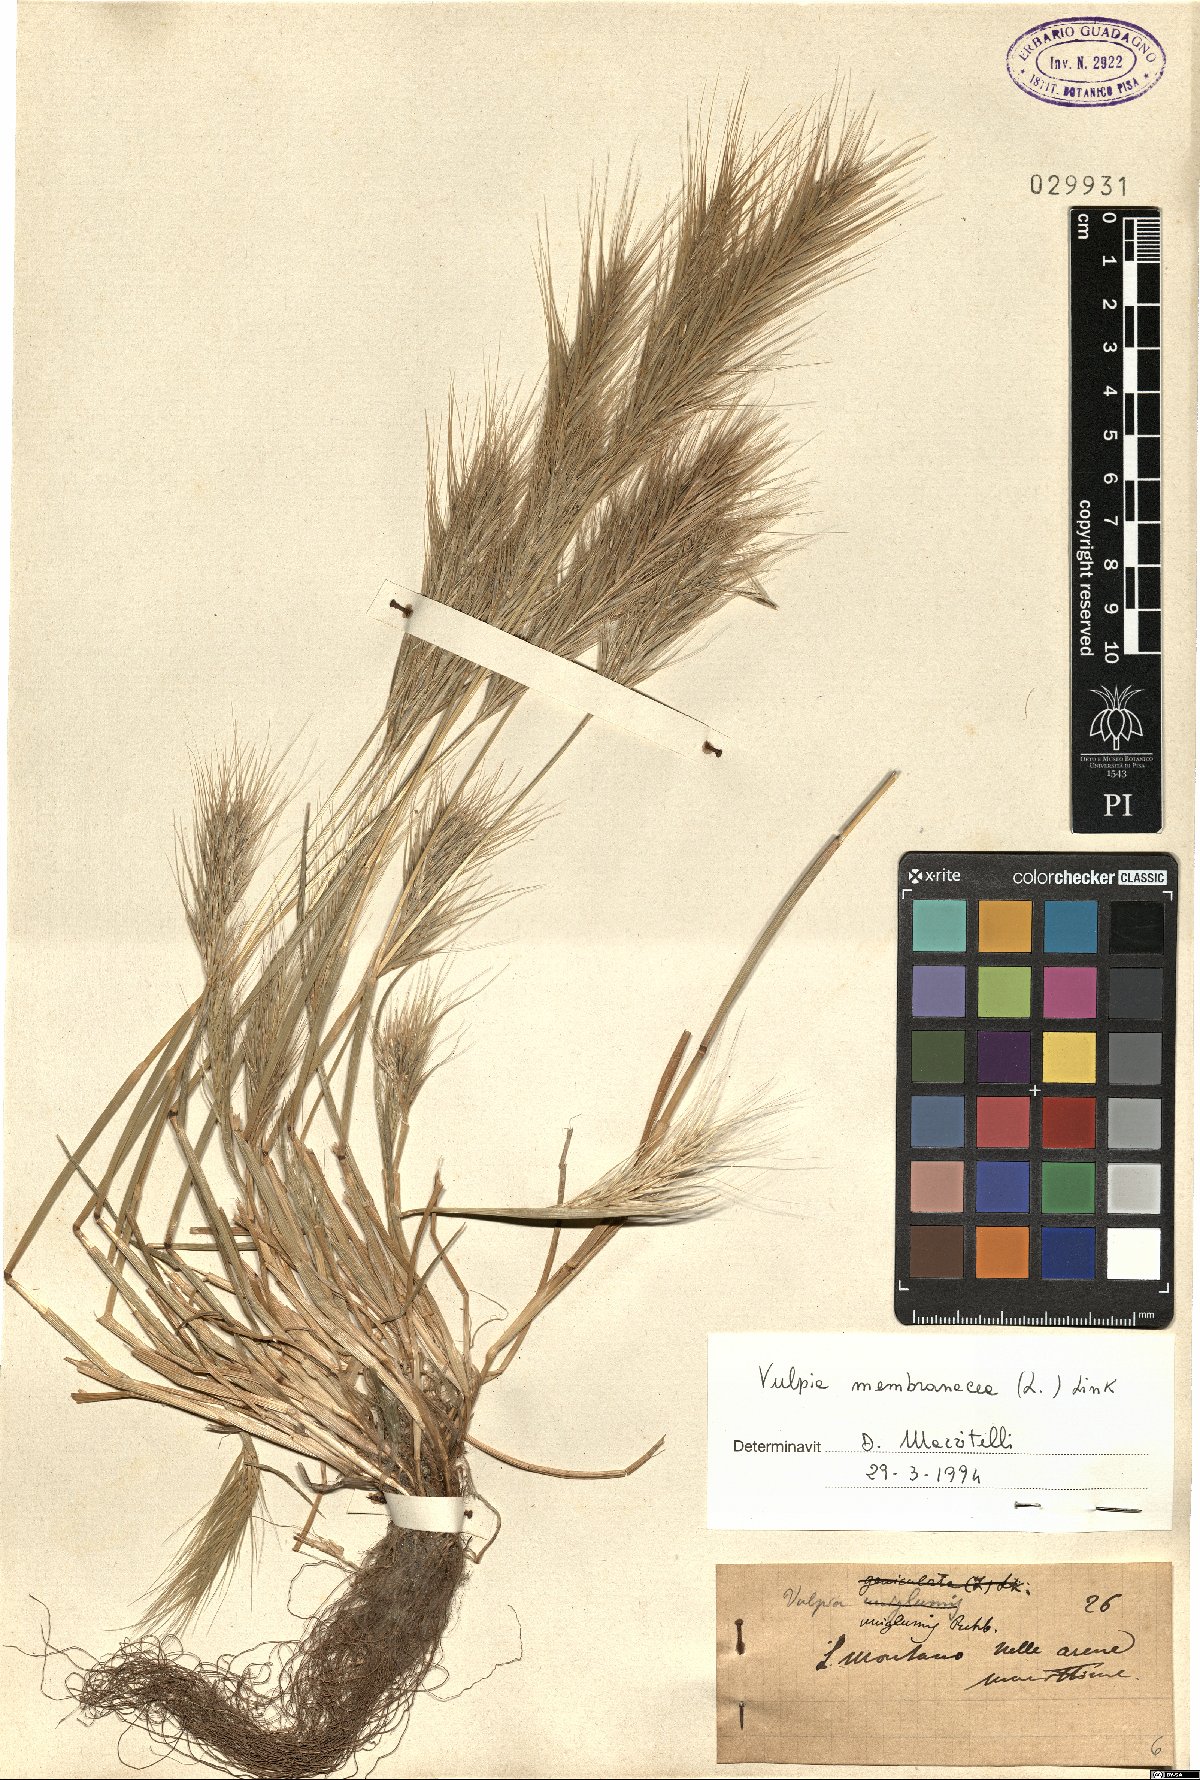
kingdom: Plantae
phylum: Tracheophyta
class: Liliopsida
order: Poales
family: Poaceae
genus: Festuca
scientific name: Festuca membranacea
